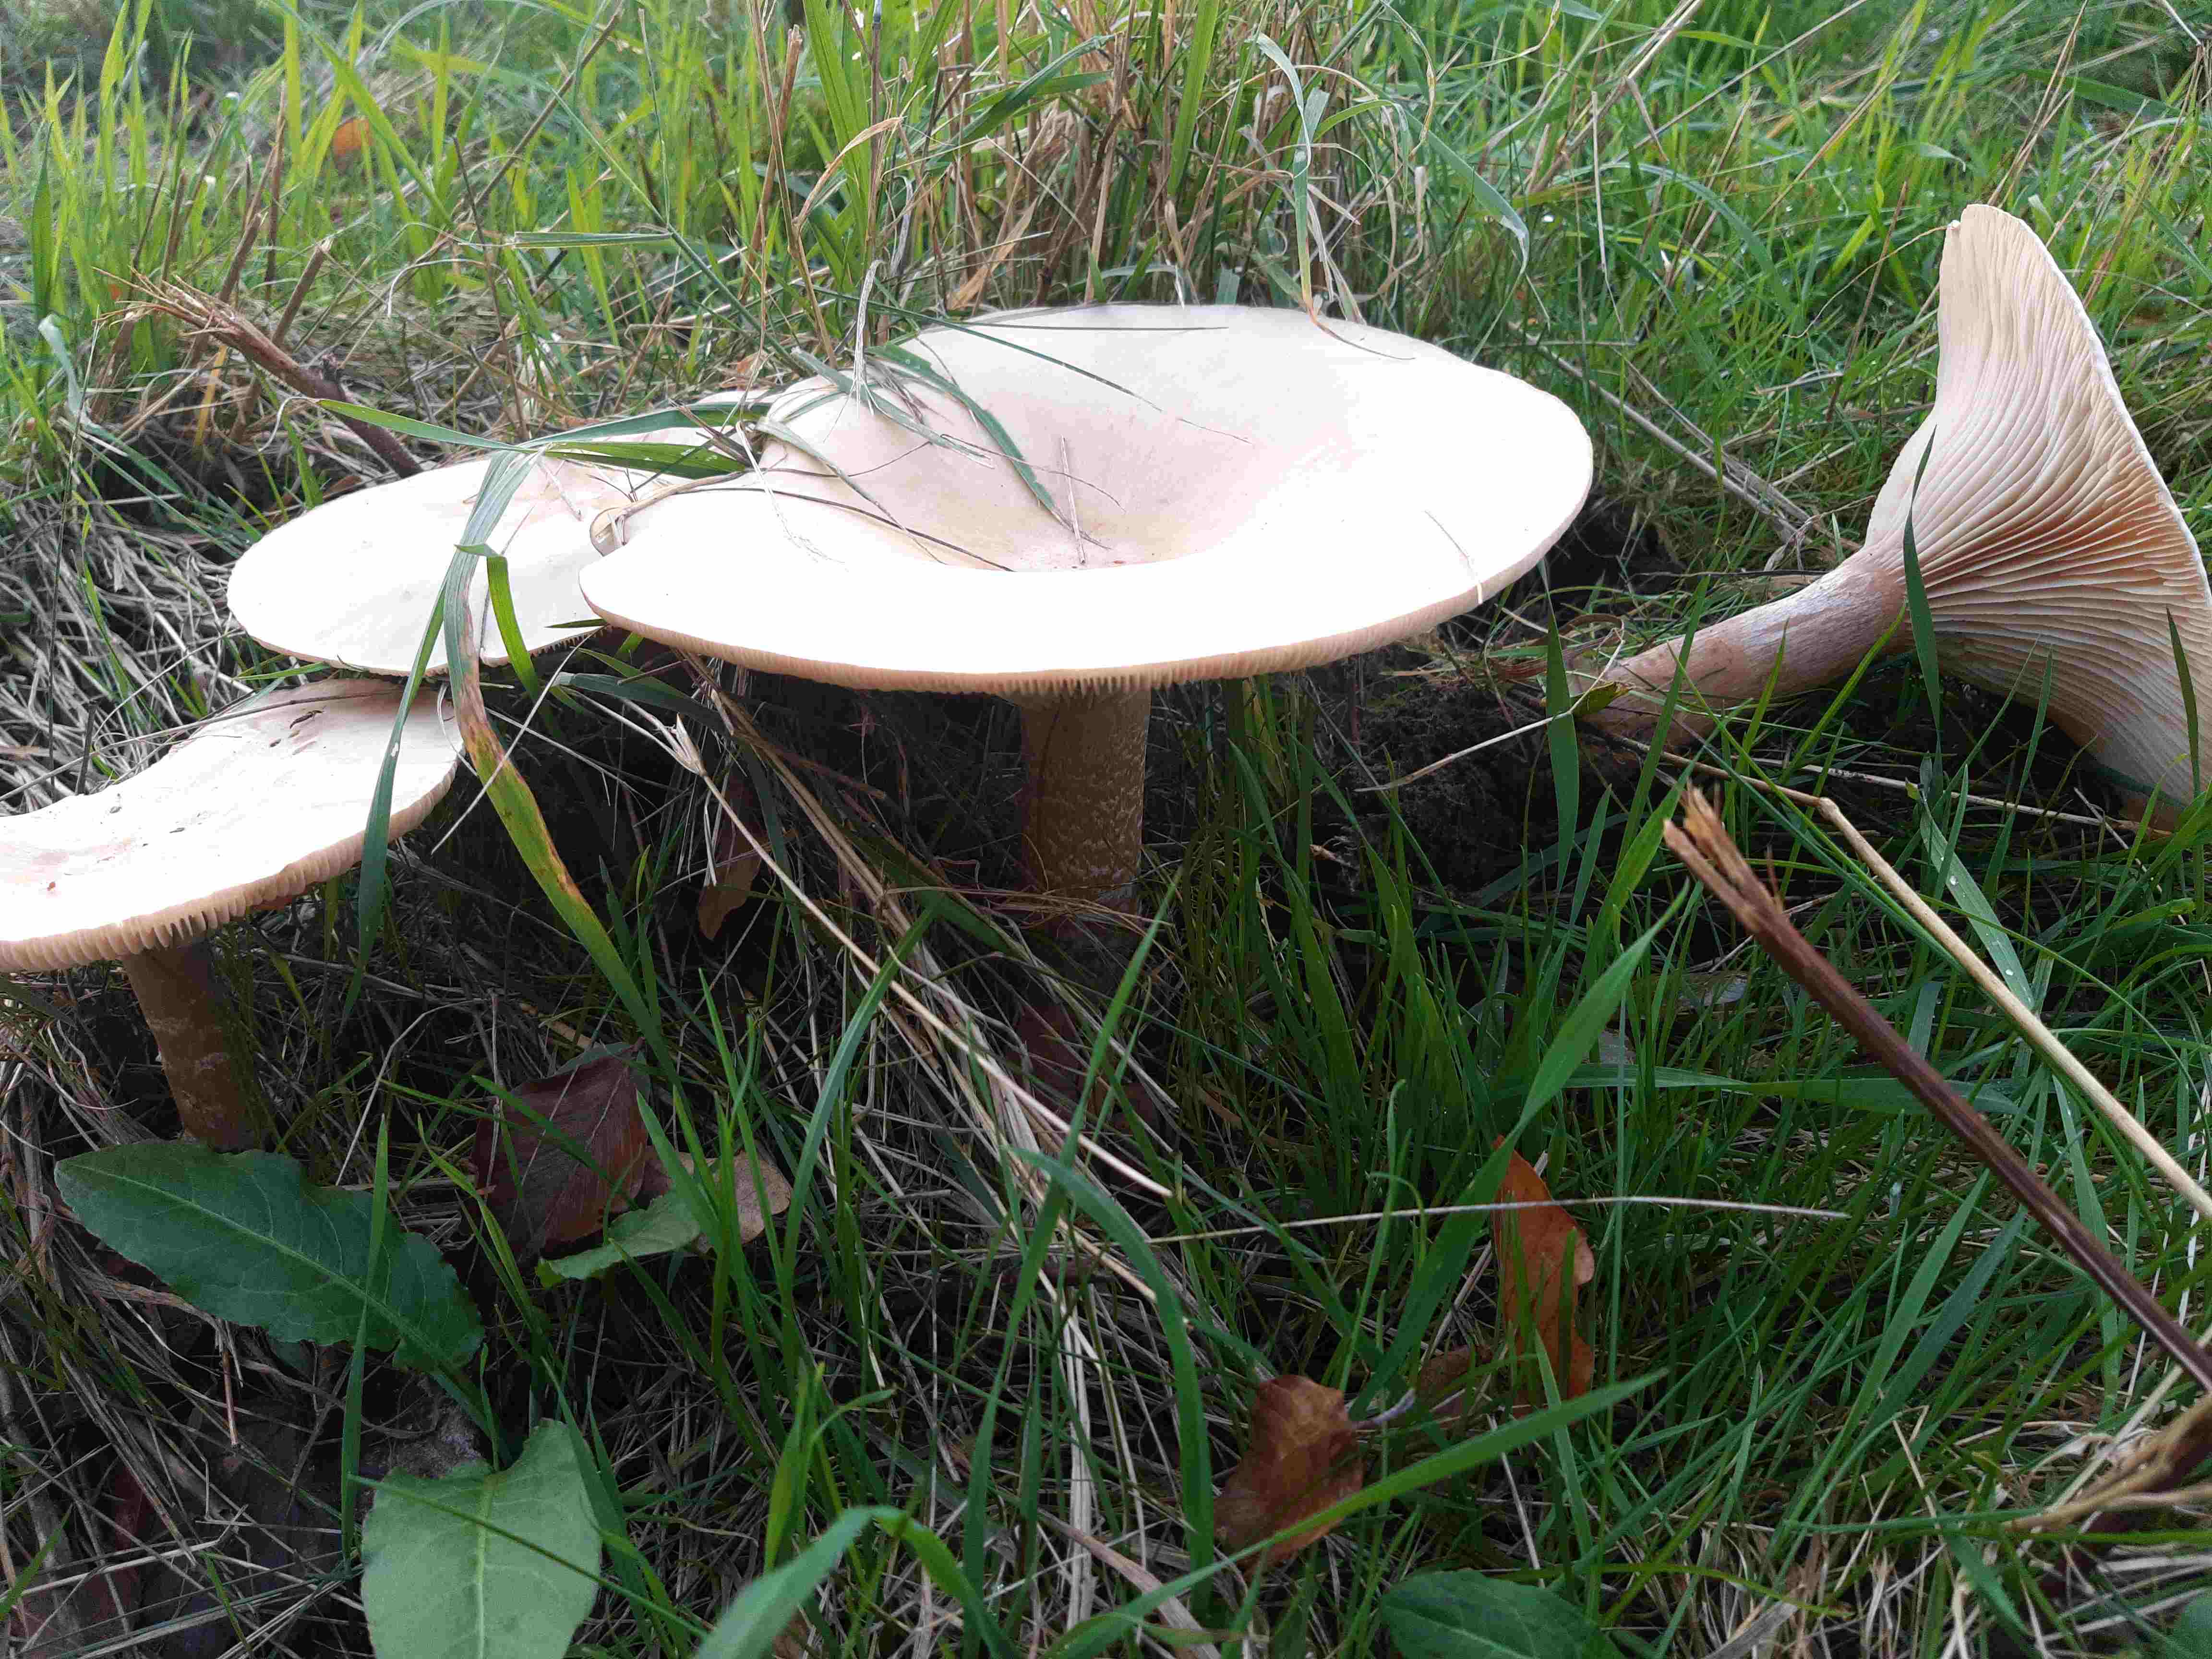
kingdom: Fungi
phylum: Basidiomycota
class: Agaricomycetes
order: Agaricales
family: Tricholomataceae
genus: Infundibulicybe
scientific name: Infundibulicybe geotropa
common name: stor tragthat
